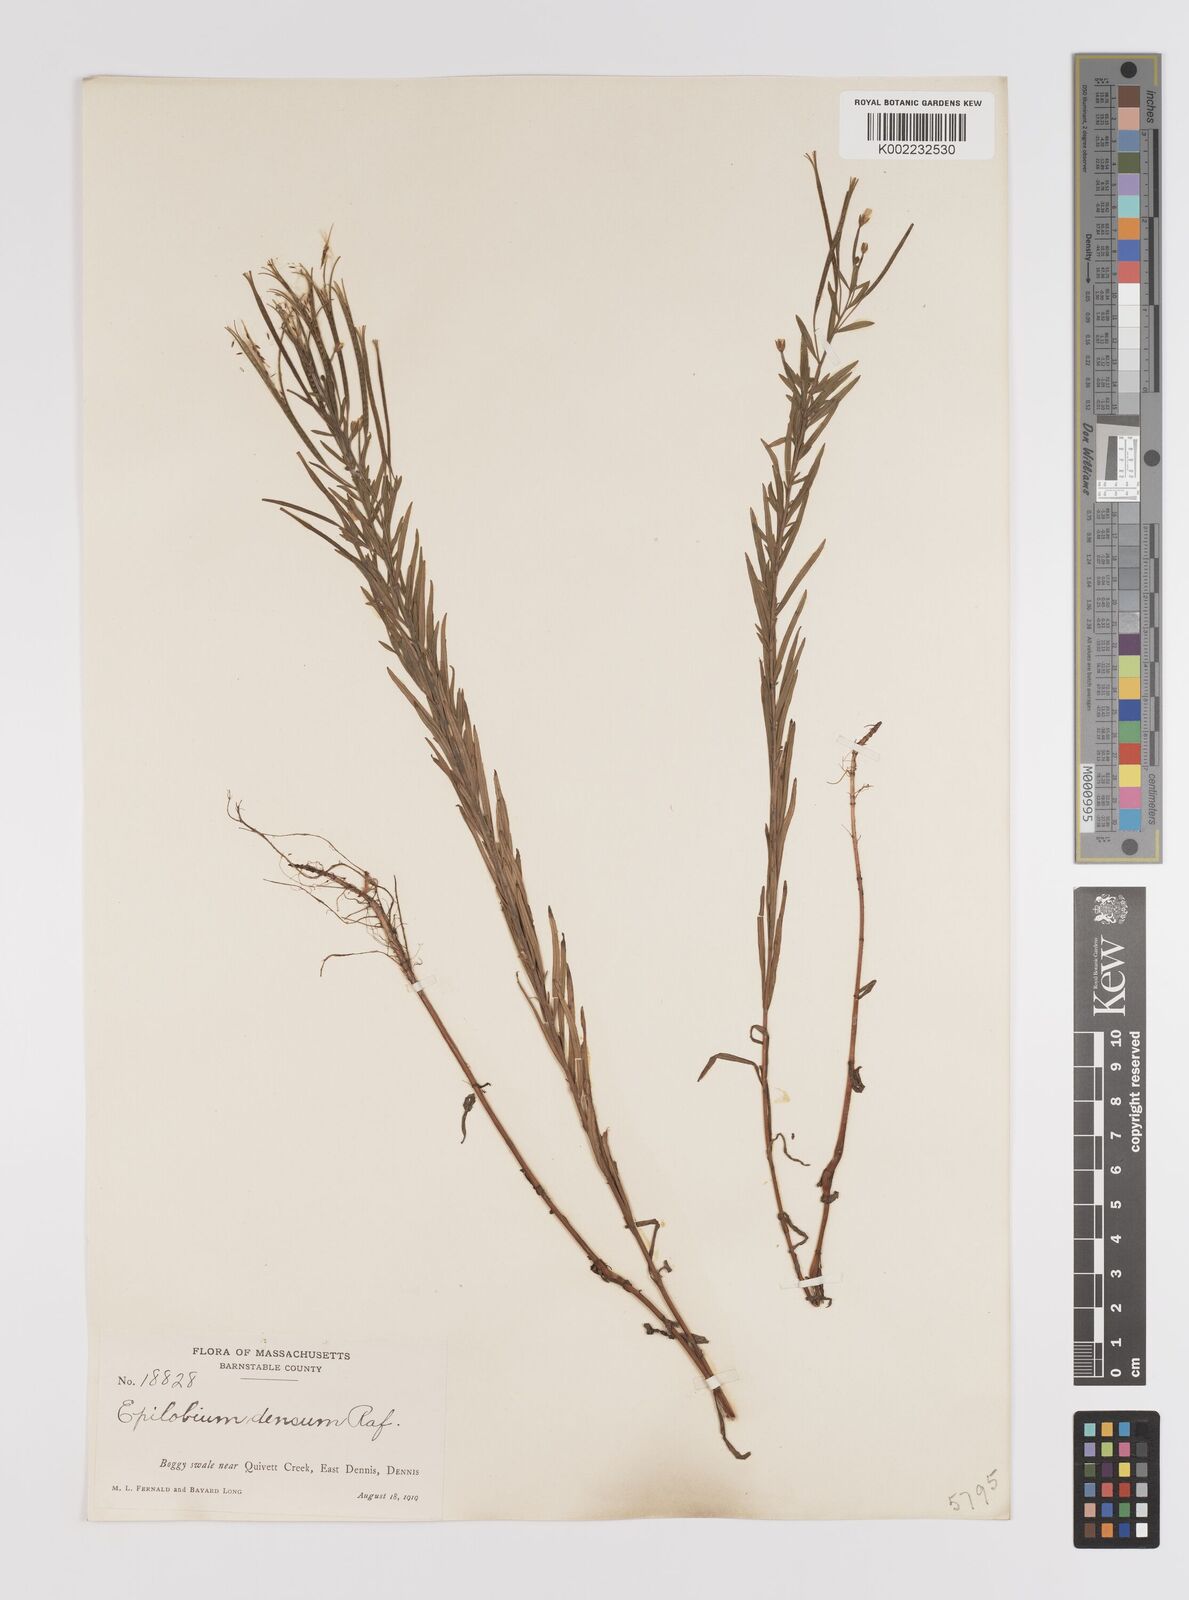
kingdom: Plantae
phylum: Tracheophyta
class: Magnoliopsida
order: Myrtales
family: Onagraceae
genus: Epilobium
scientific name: Epilobium densum
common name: Downy willowherb
